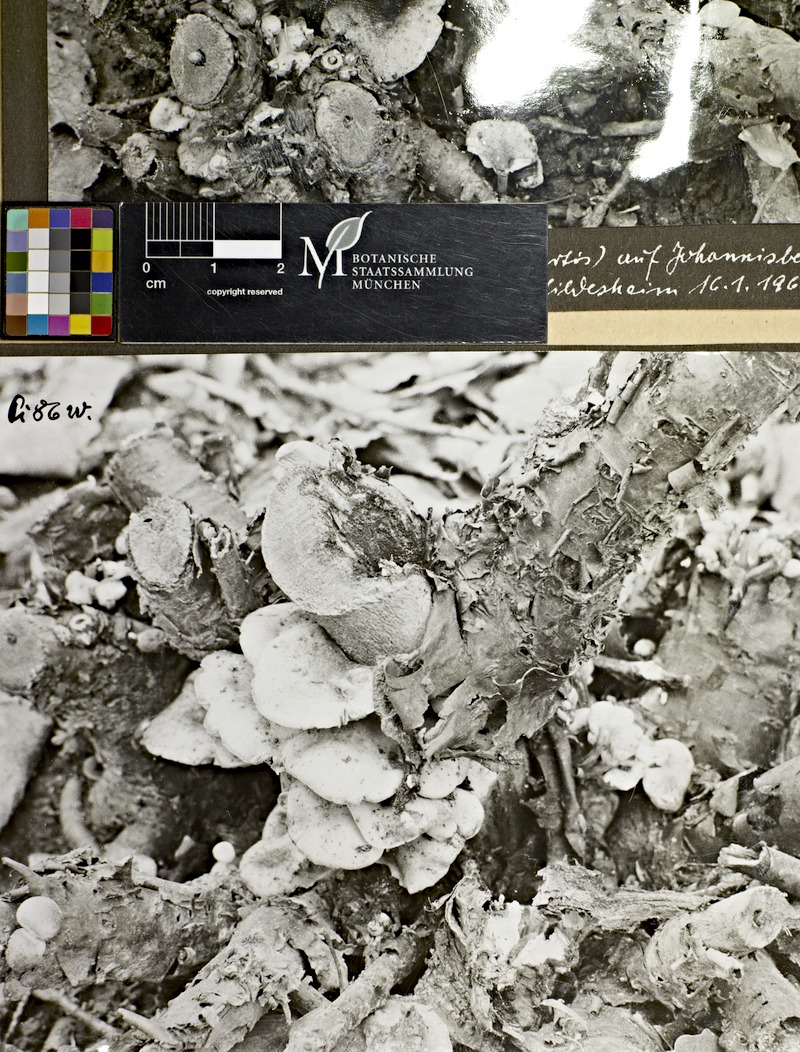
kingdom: Plantae
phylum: Tracheophyta
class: Magnoliopsida
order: Saxifragales
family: Grossulariaceae
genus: Ribes
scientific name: Ribes
